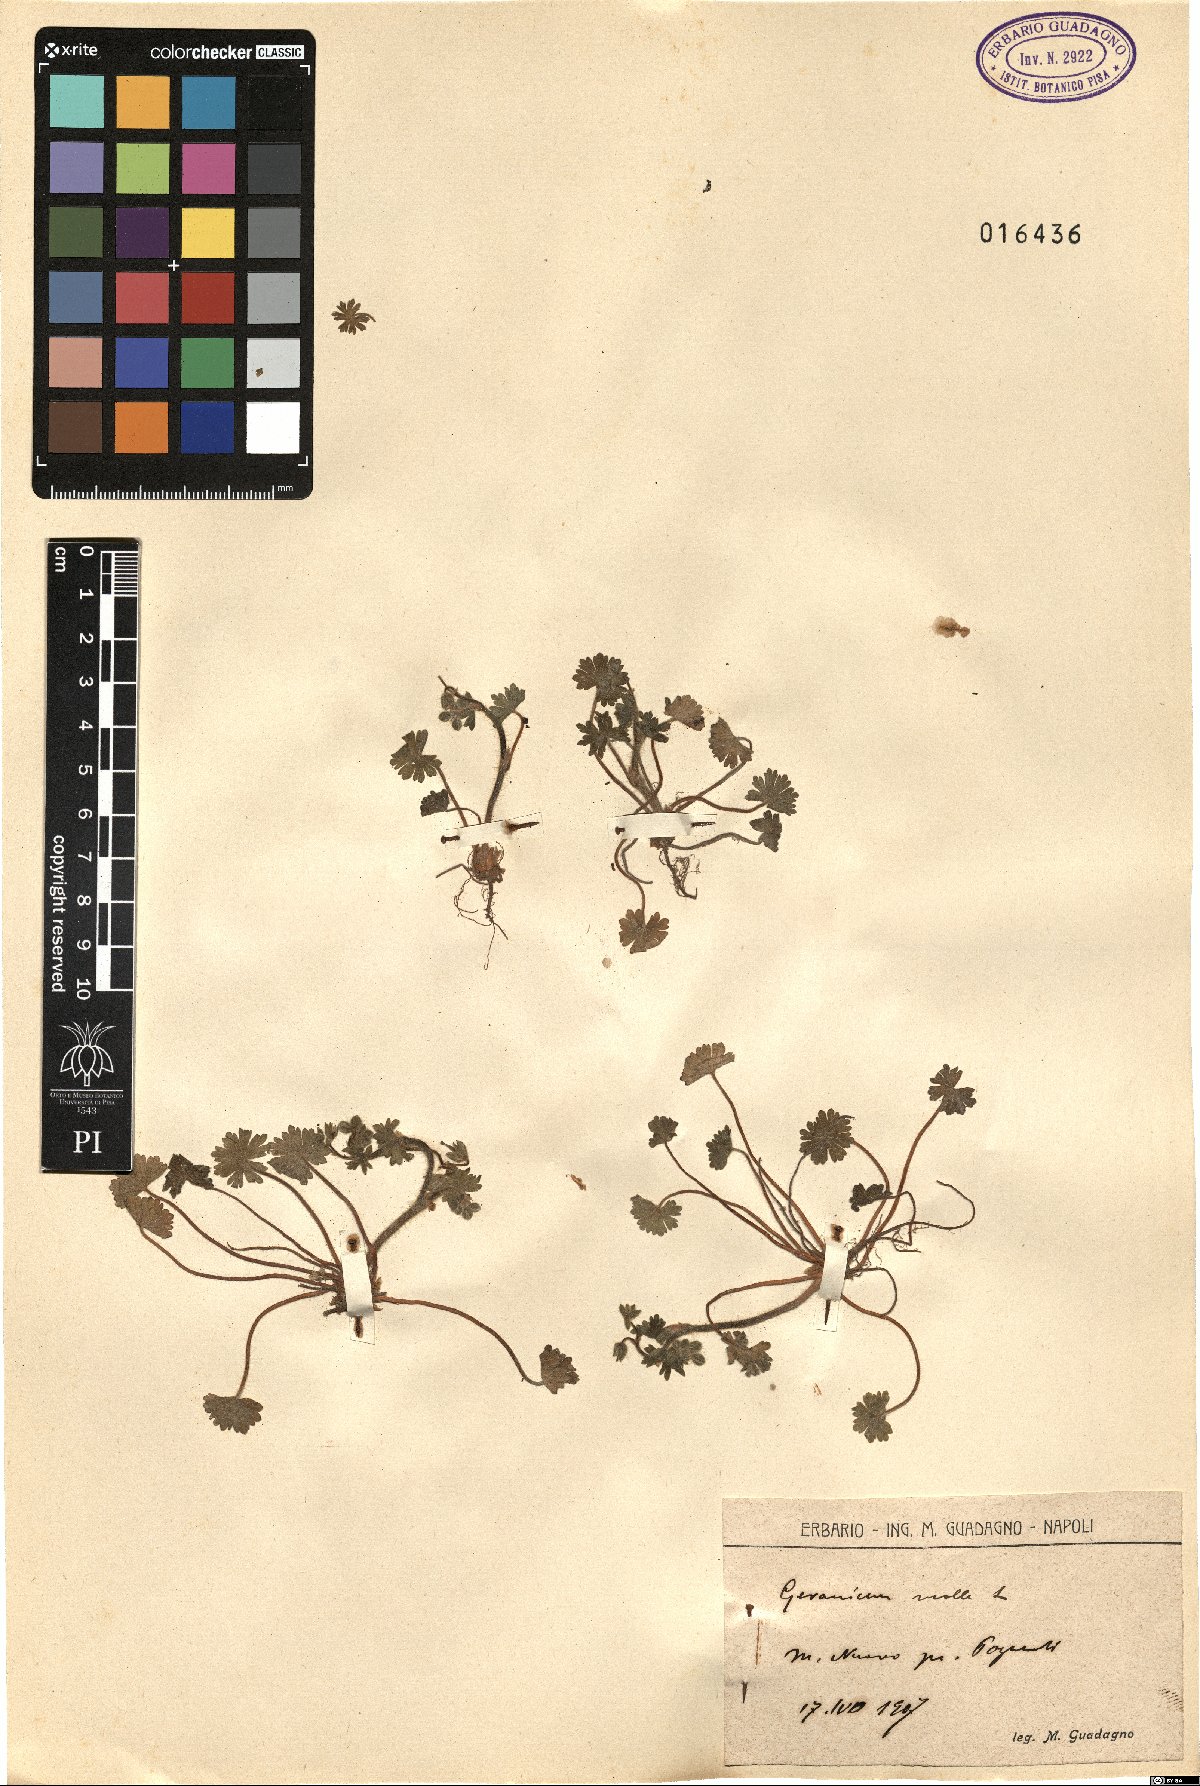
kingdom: Plantae
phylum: Tracheophyta
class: Magnoliopsida
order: Geraniales
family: Geraniaceae
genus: Geranium
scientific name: Geranium molle
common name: Dove's-foot crane's-bill
